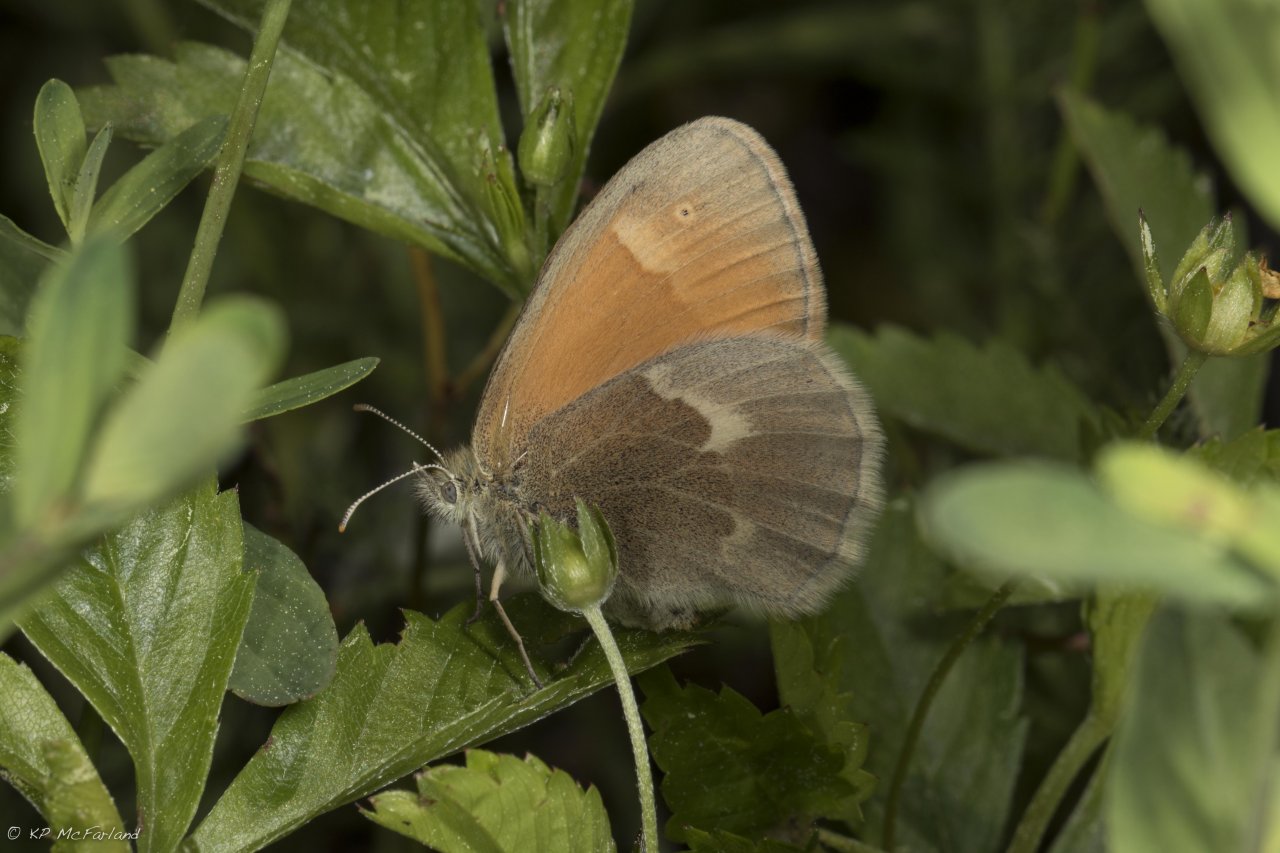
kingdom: Animalia
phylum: Arthropoda
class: Insecta
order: Lepidoptera
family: Nymphalidae
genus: Coenonympha
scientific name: Coenonympha tullia
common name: Large Heath
